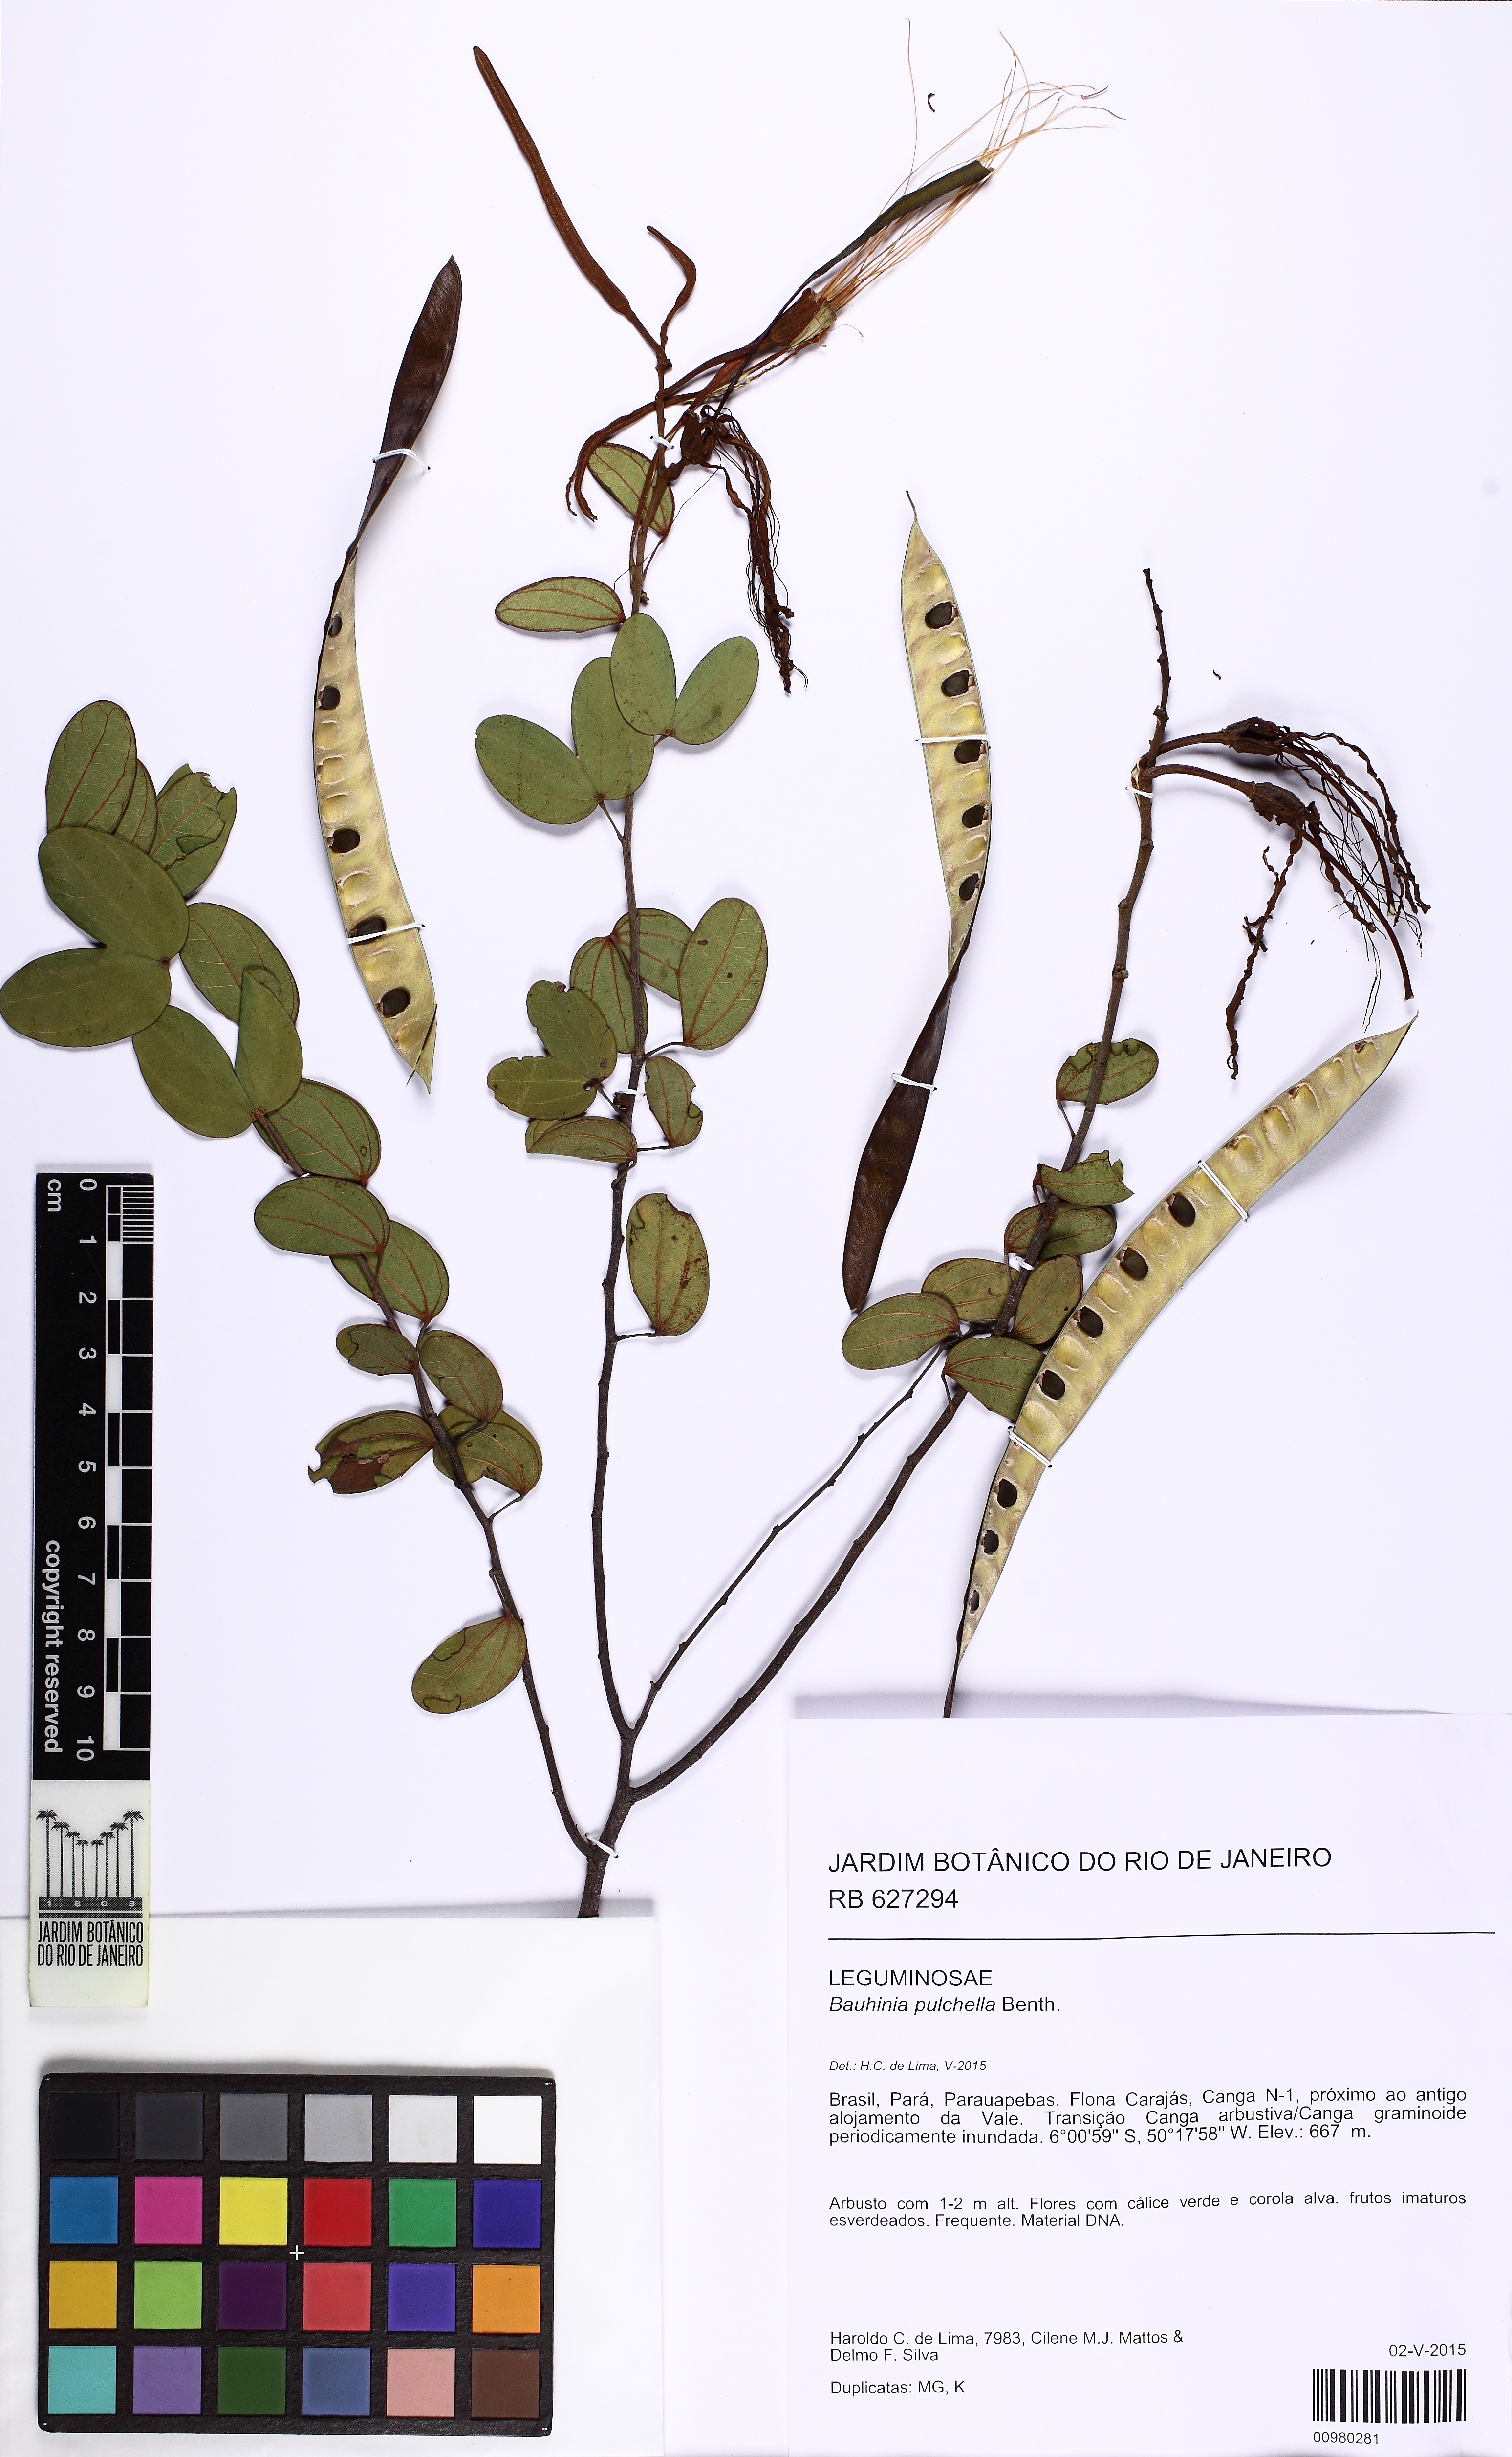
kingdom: Plantae
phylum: Tracheophyta
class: Magnoliopsida
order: Fabales
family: Fabaceae
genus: Bauhinia
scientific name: Bauhinia pulchella
